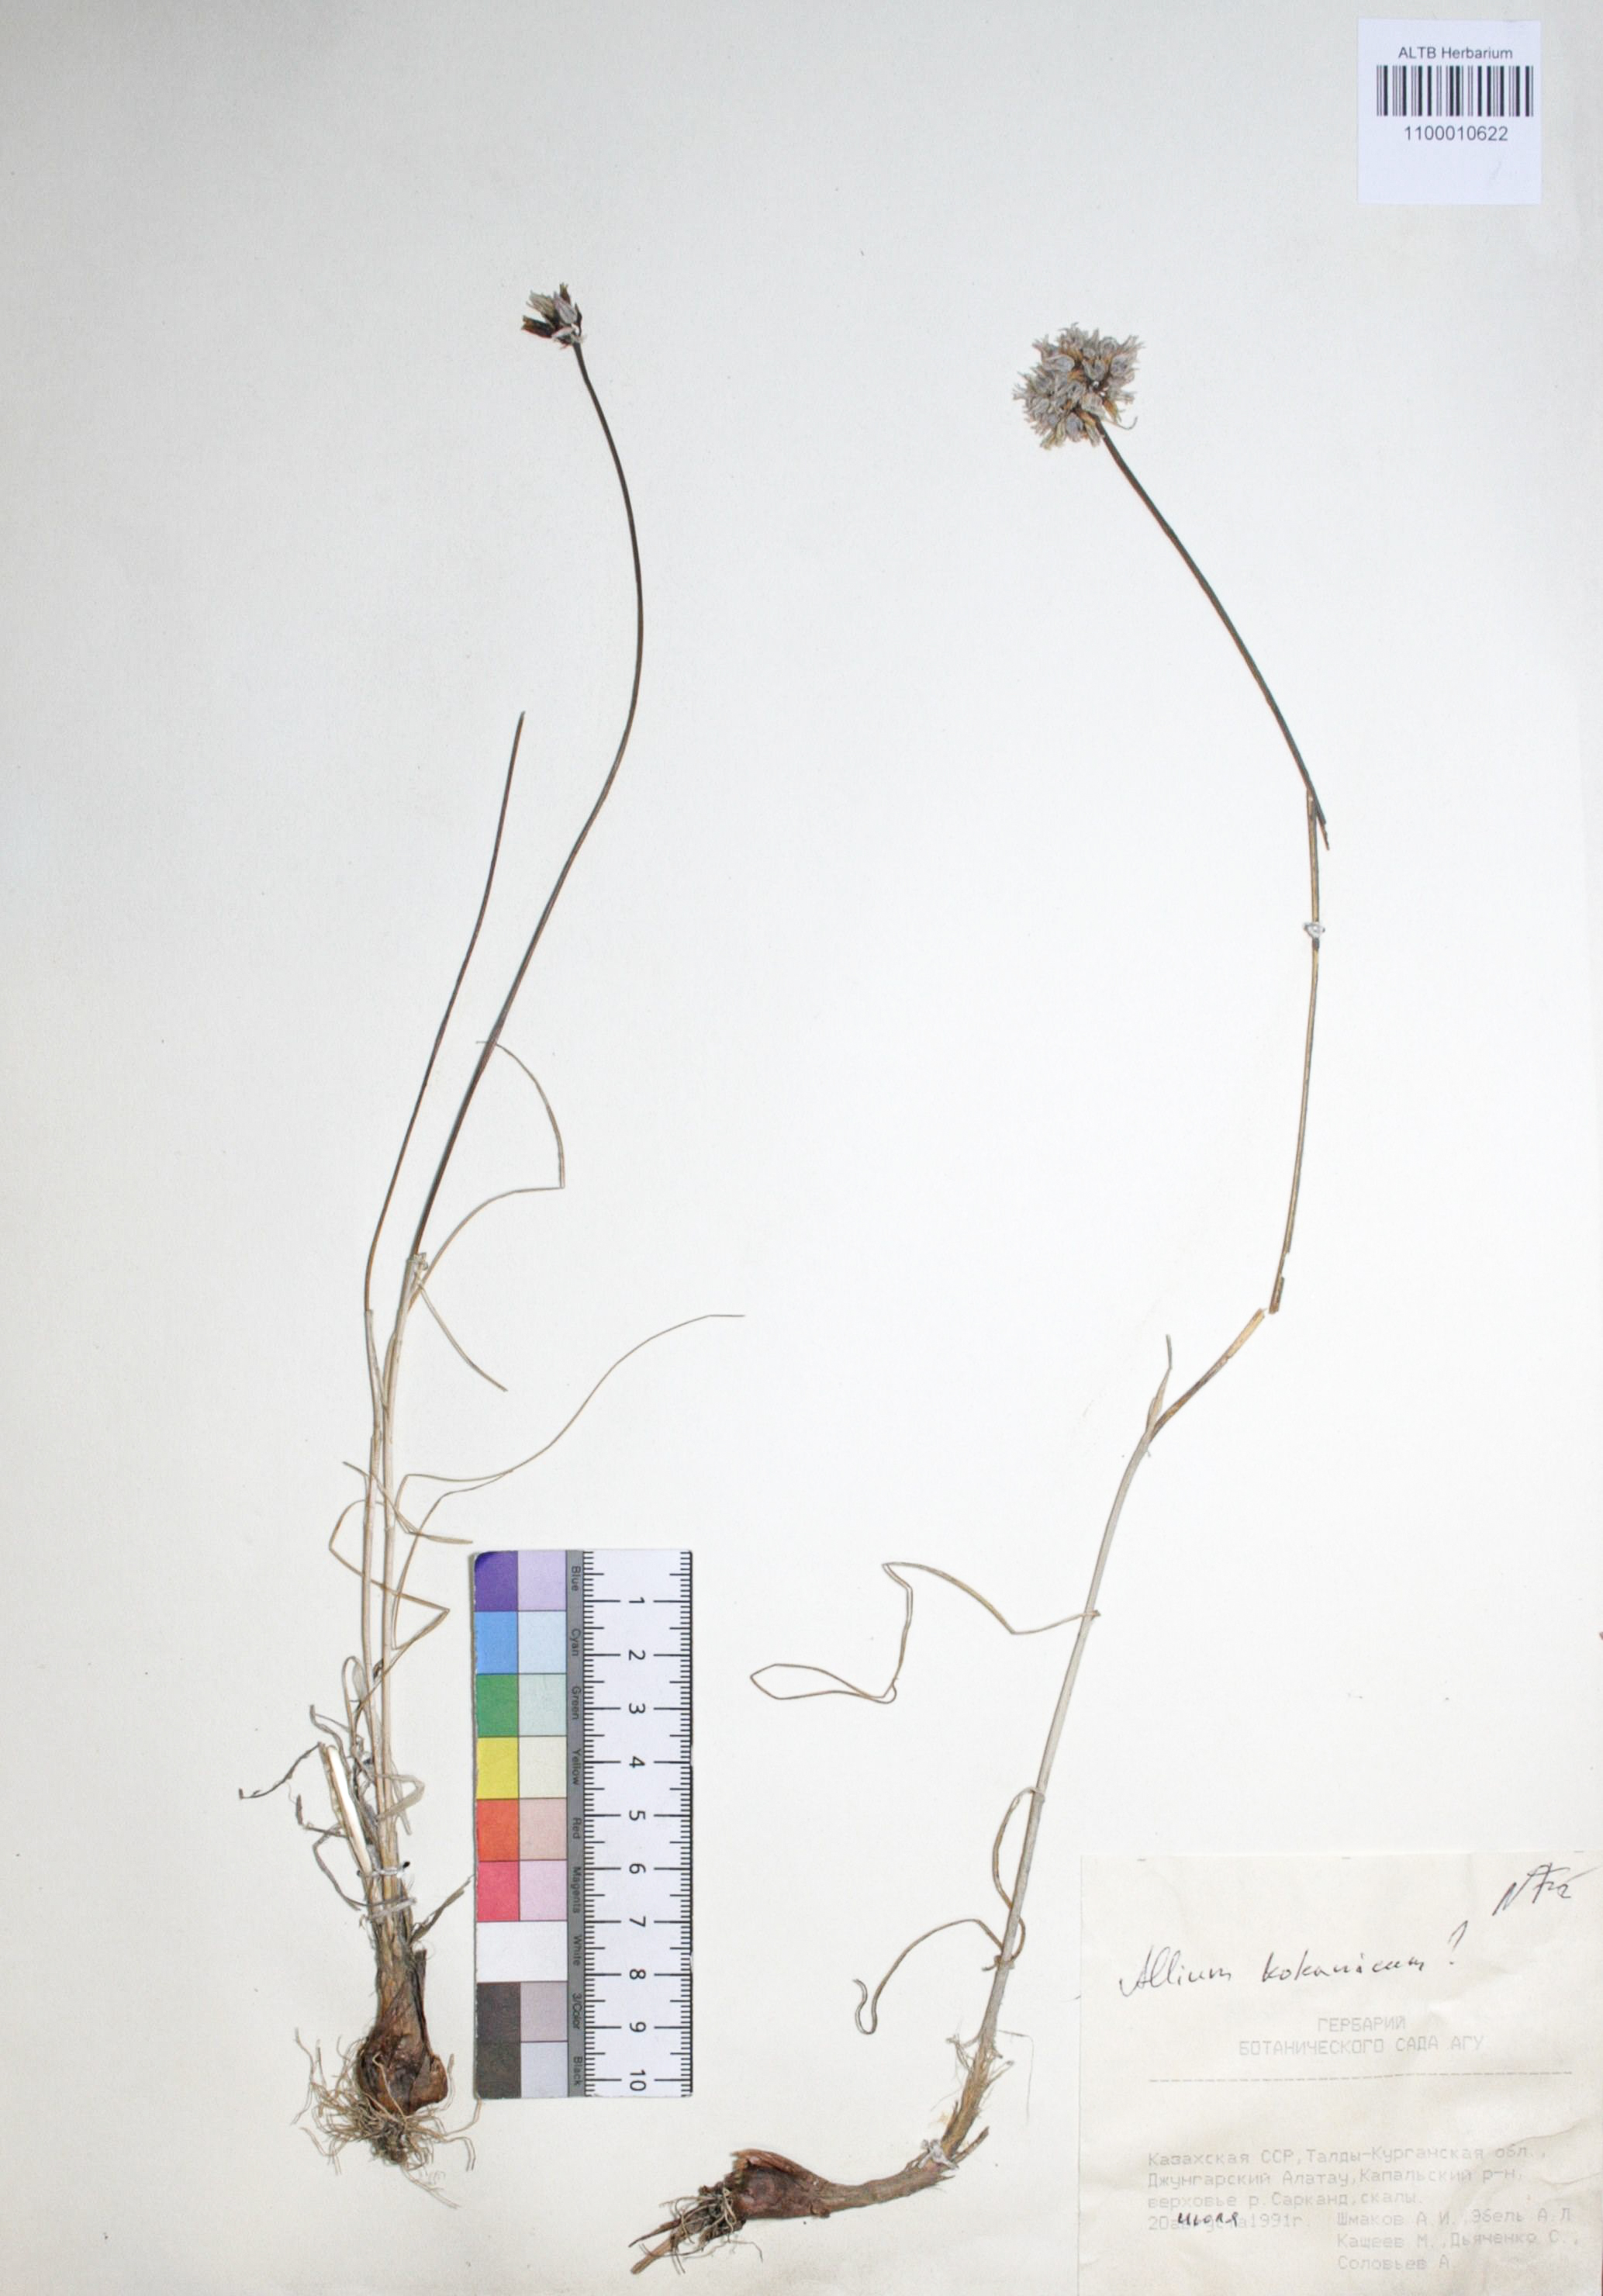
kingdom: Plantae
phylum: Tracheophyta
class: Liliopsida
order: Asparagales
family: Amaryllidaceae
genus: Allium
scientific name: Allium kokanicum
